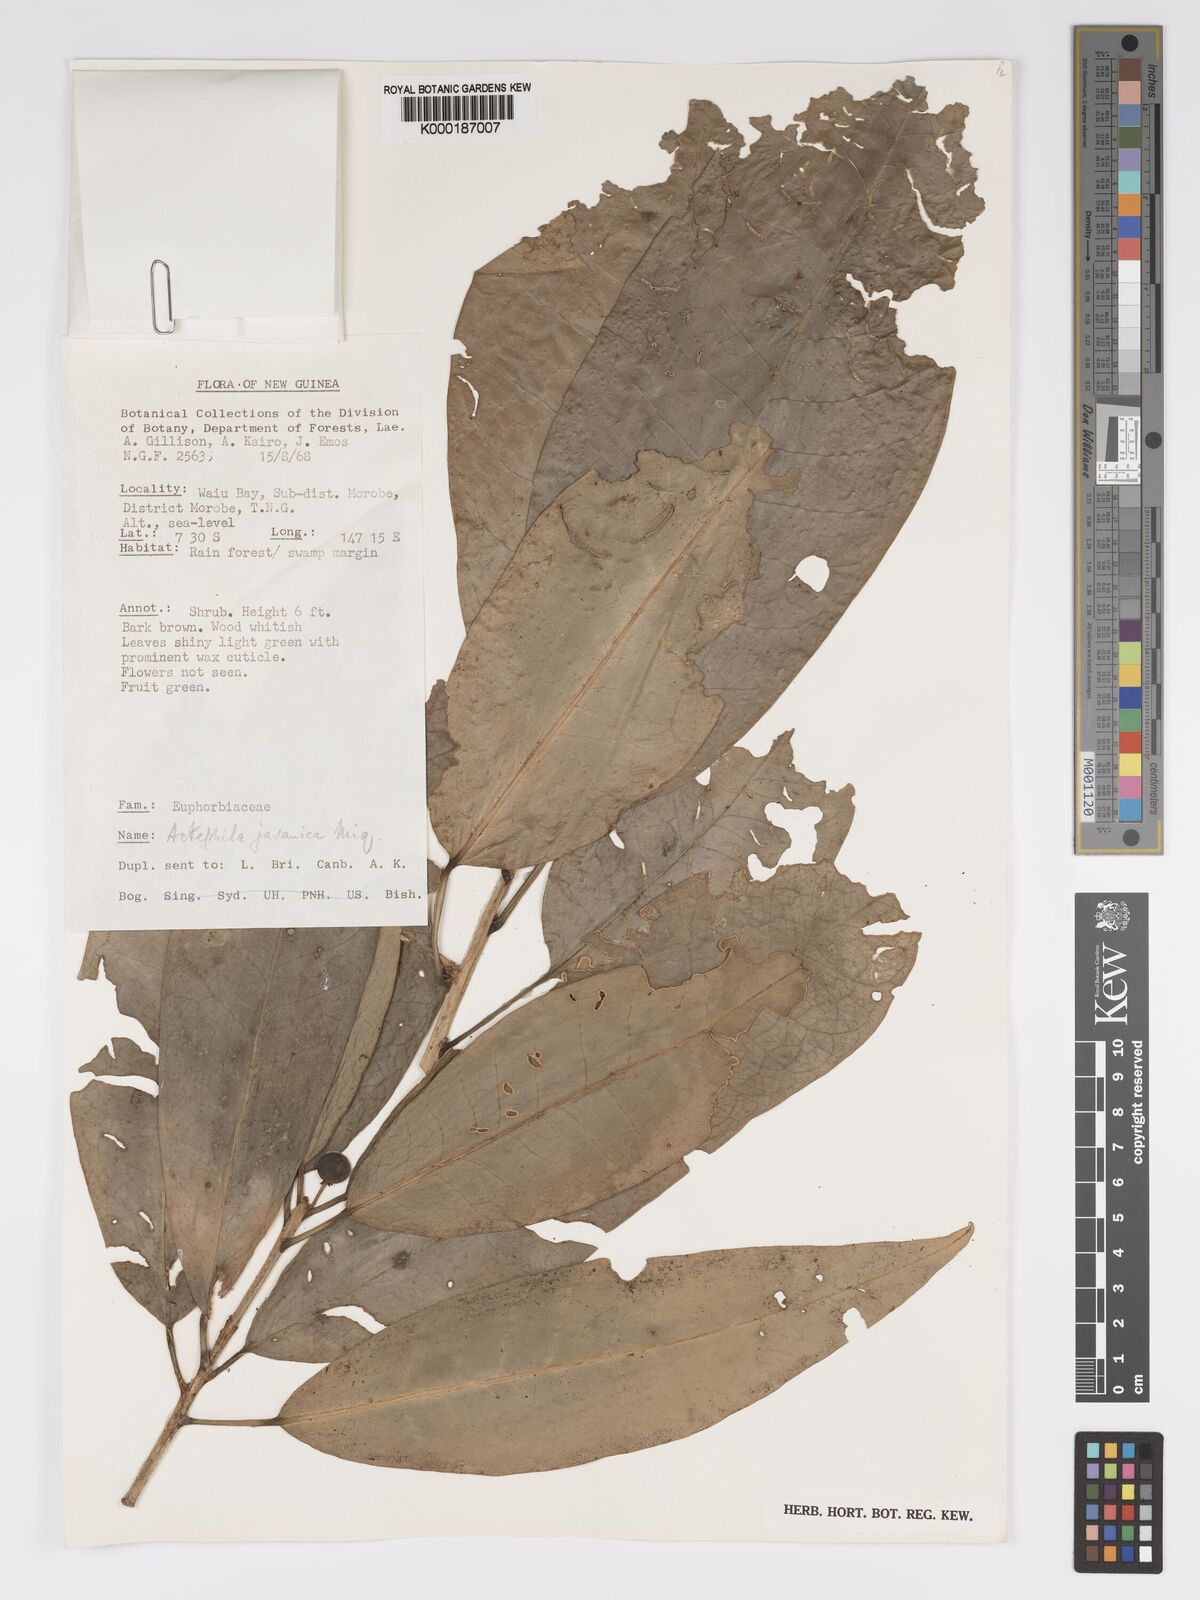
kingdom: Plantae
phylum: Tracheophyta
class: Magnoliopsida
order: Malpighiales
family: Phyllanthaceae
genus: Actephila
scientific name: Actephila
